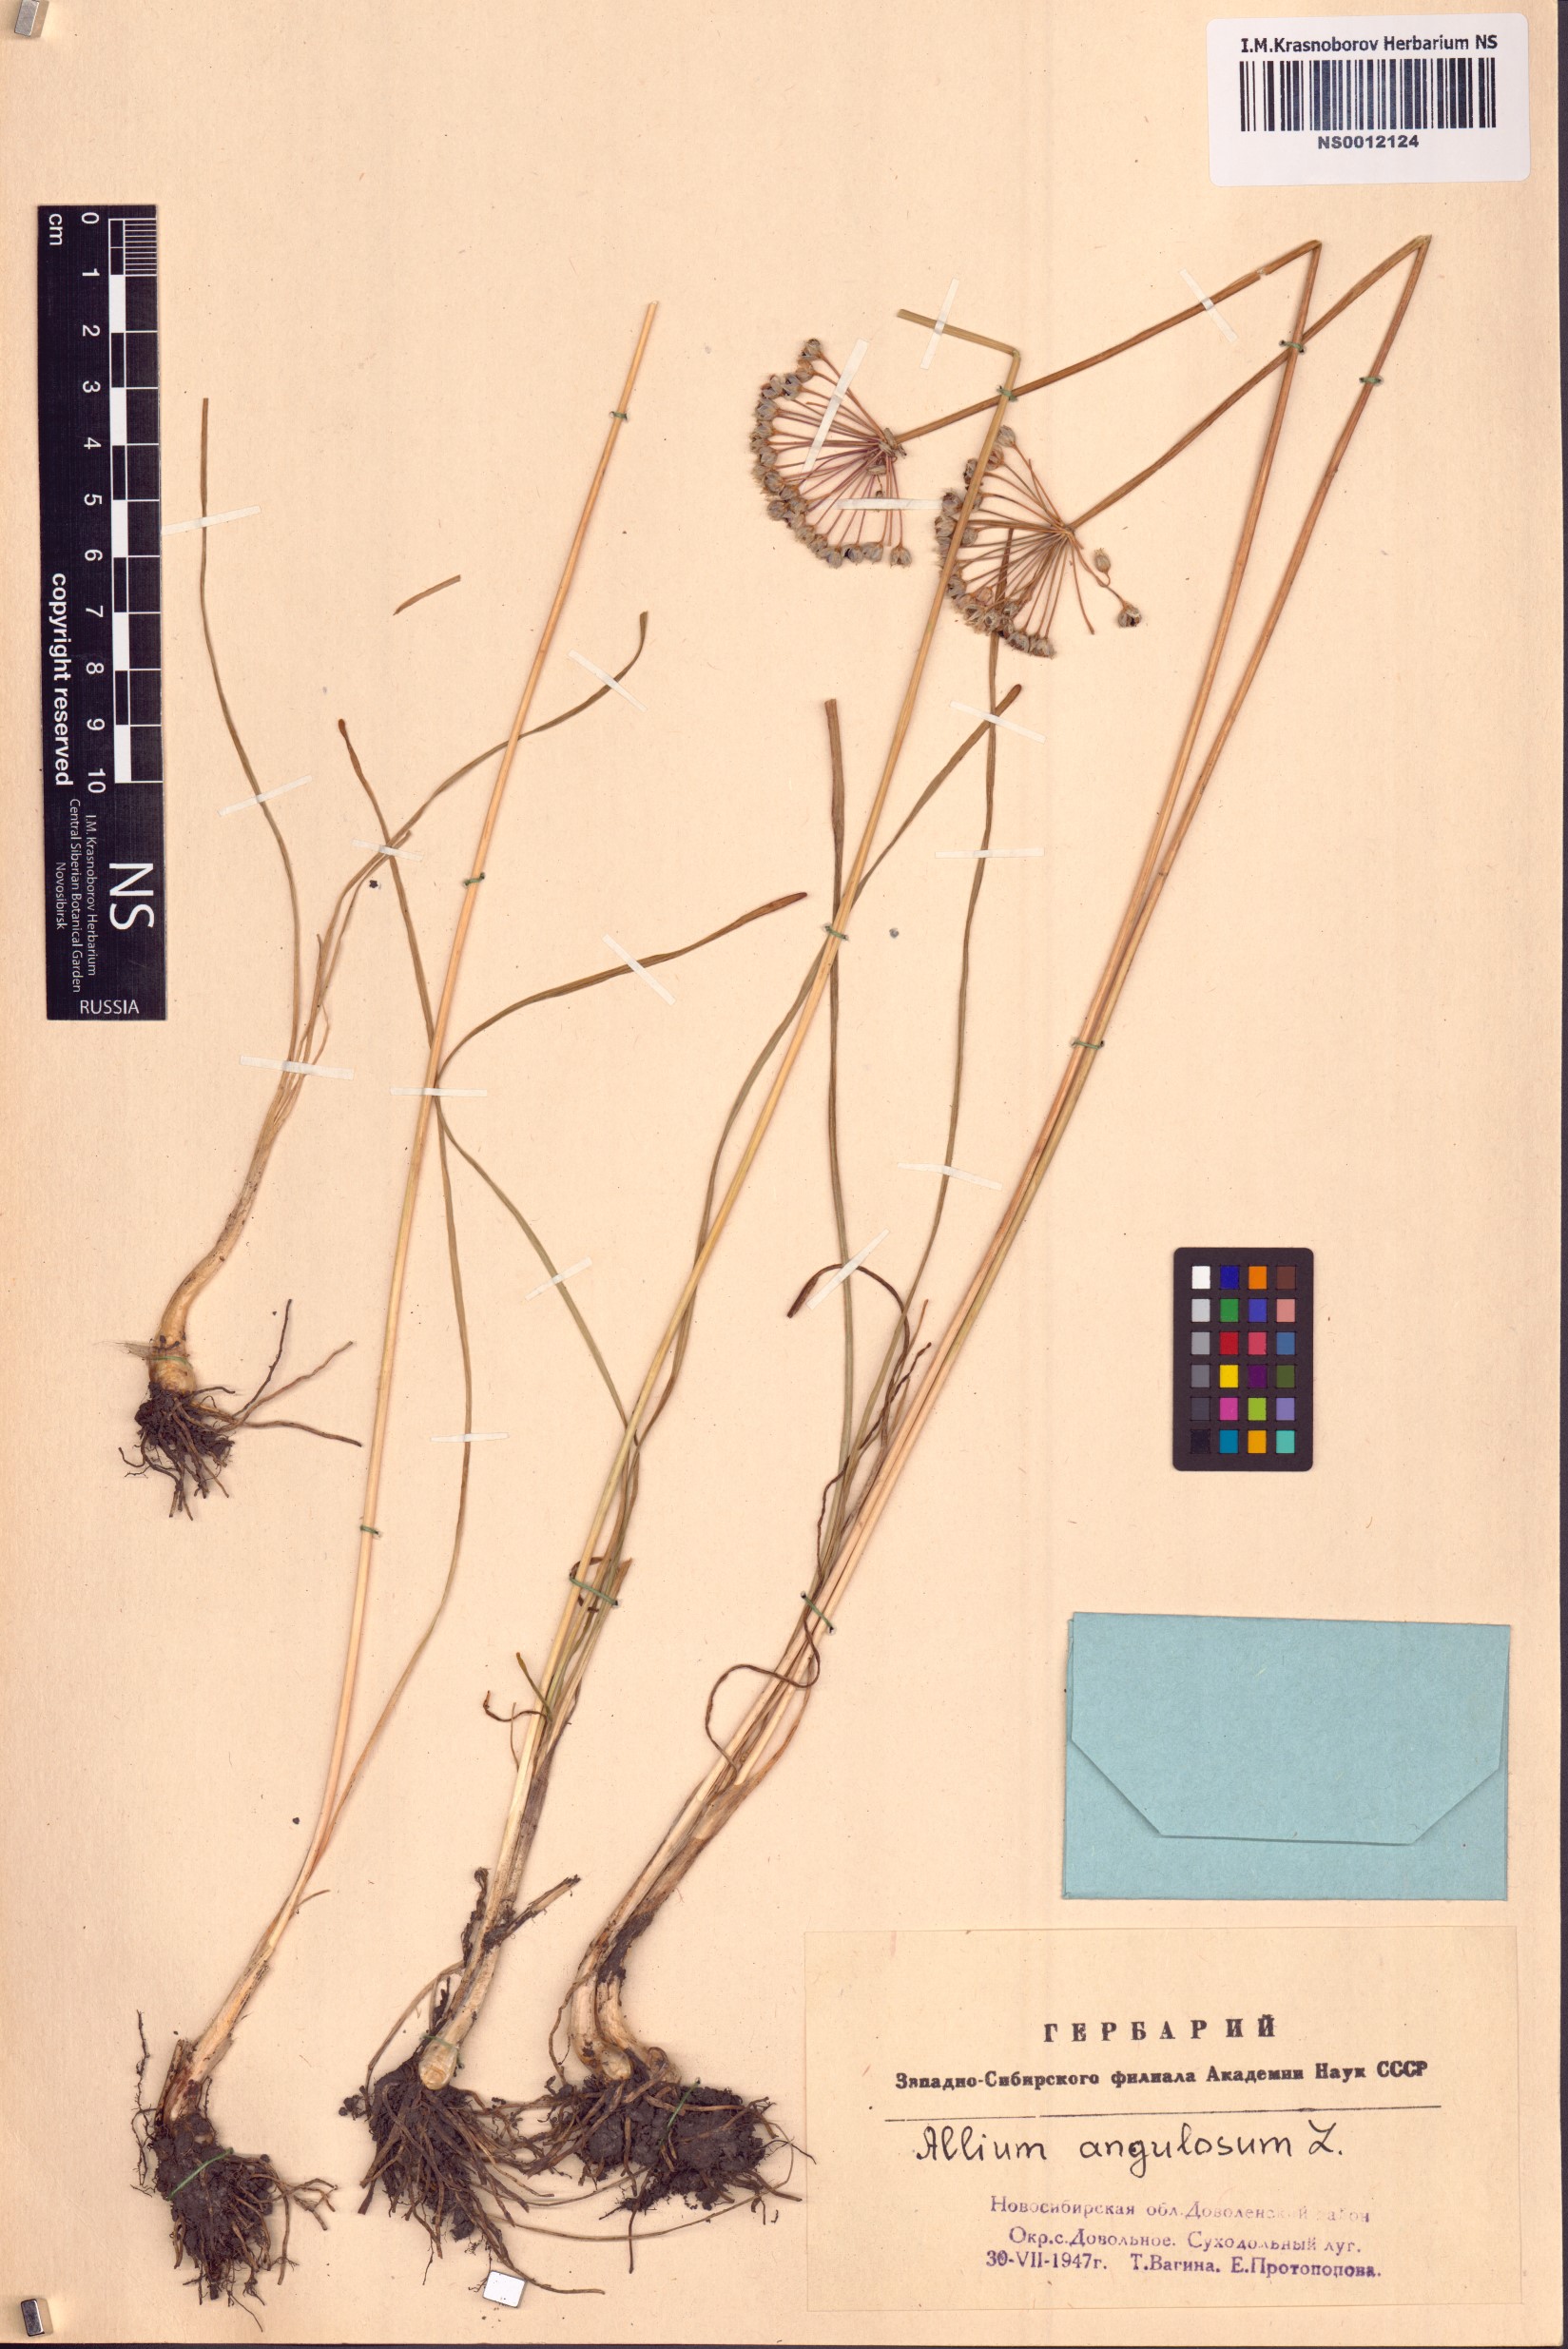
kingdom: Plantae
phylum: Tracheophyta
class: Liliopsida
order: Asparagales
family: Amaryllidaceae
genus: Allium
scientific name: Allium angulosum
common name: Mouse garlic
